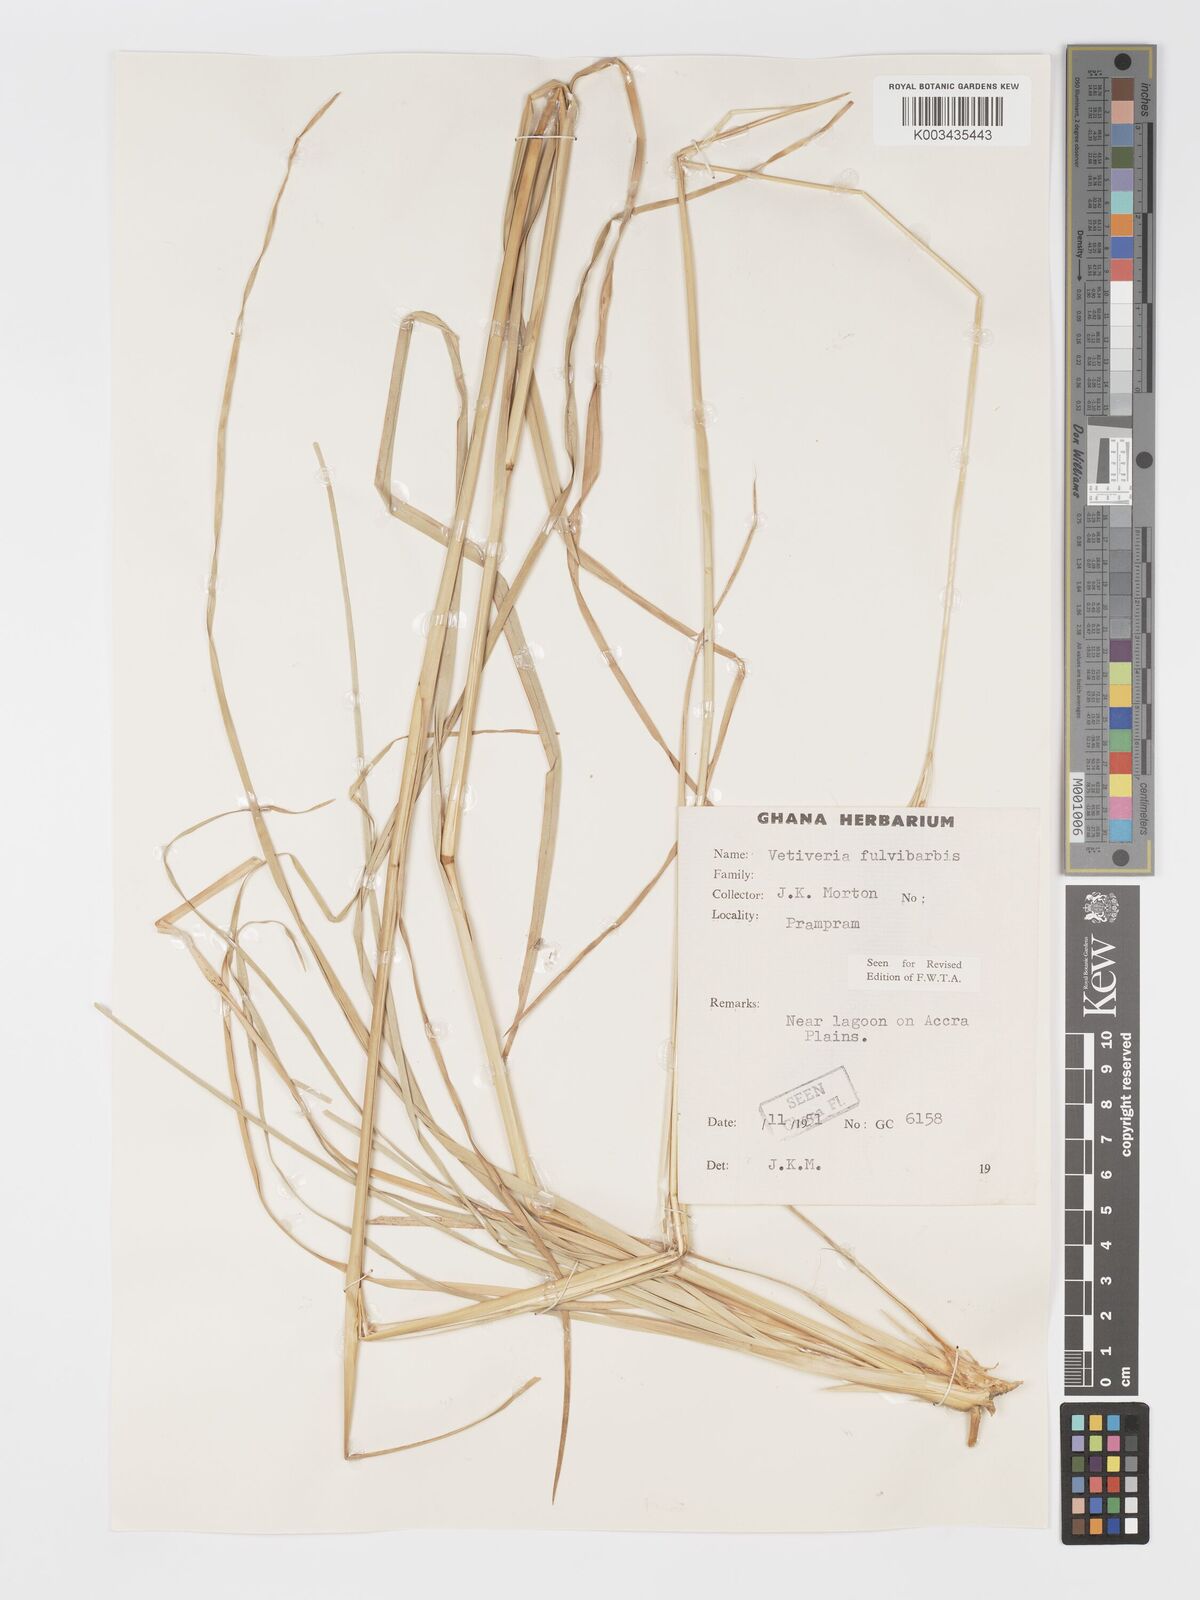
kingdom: Plantae
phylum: Tracheophyta
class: Liliopsida
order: Poales
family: Poaceae
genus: Chrysopogon
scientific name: Chrysopogon fulvibarbis
